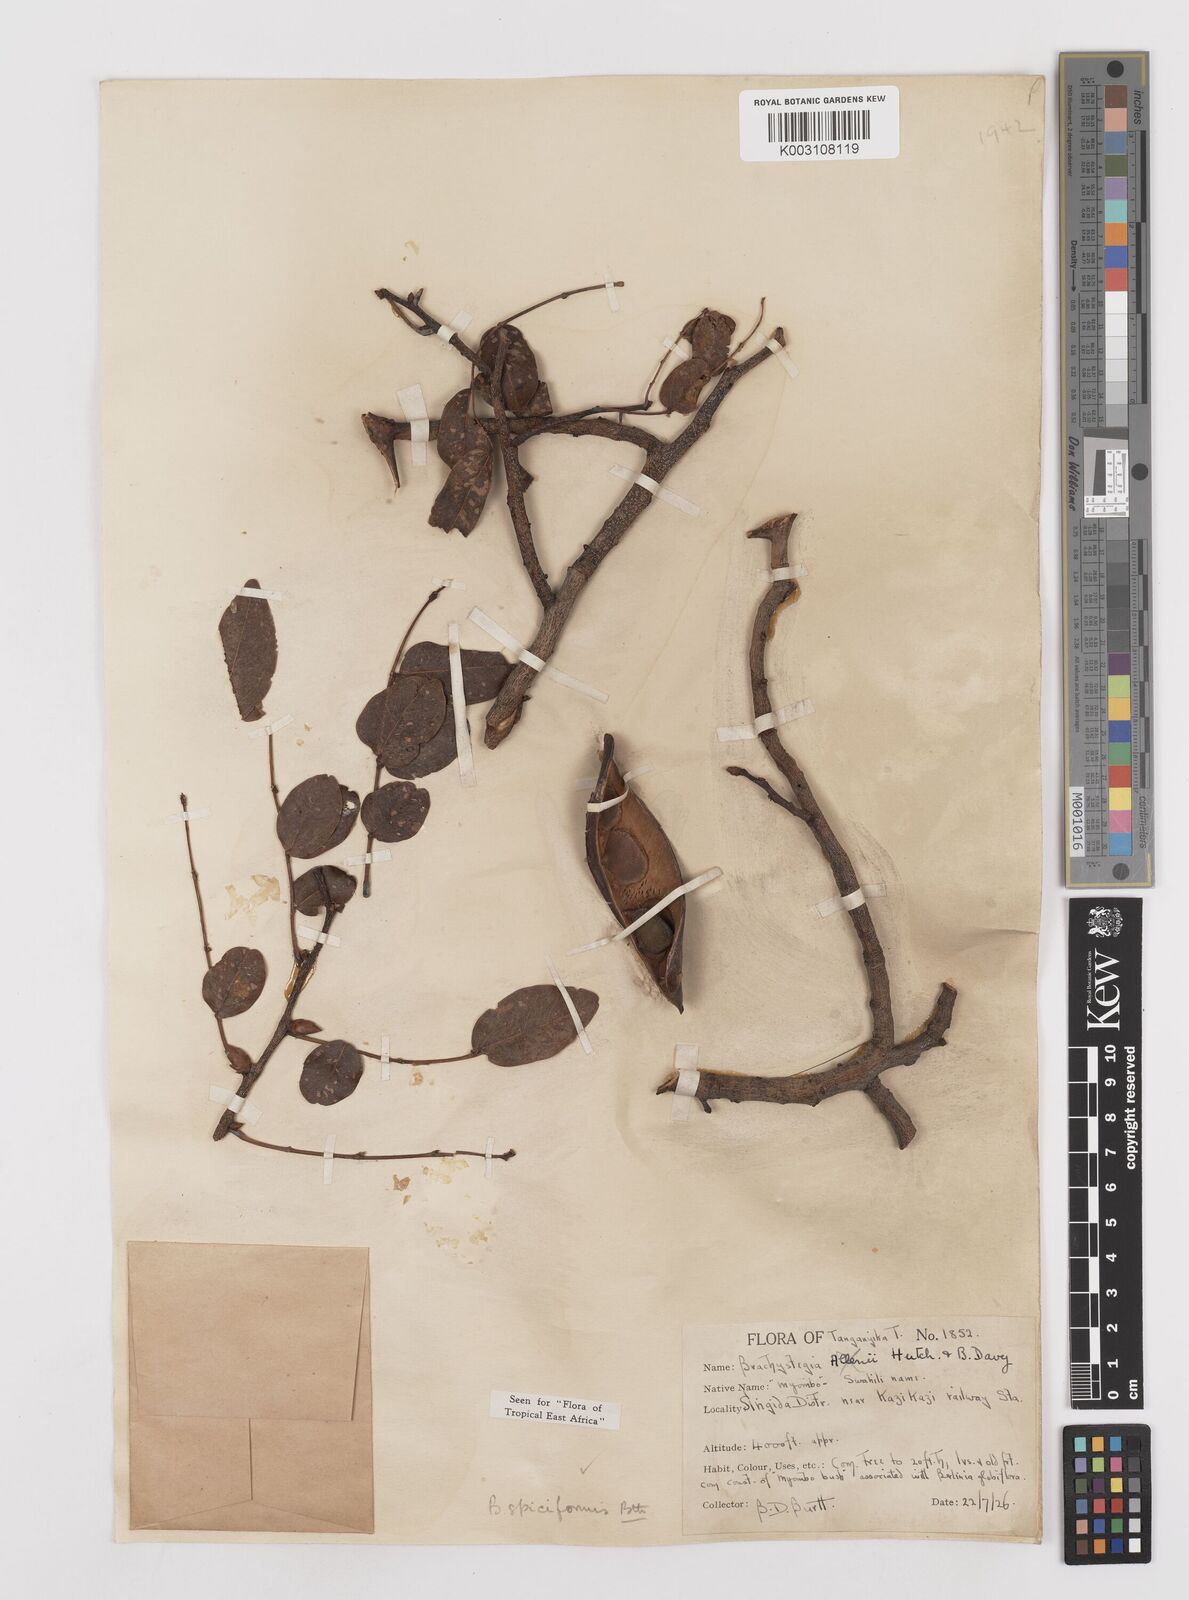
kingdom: Plantae
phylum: Tracheophyta
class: Magnoliopsida
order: Fabales
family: Fabaceae
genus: Brachystegia
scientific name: Brachystegia spiciformis
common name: Zebrawood
